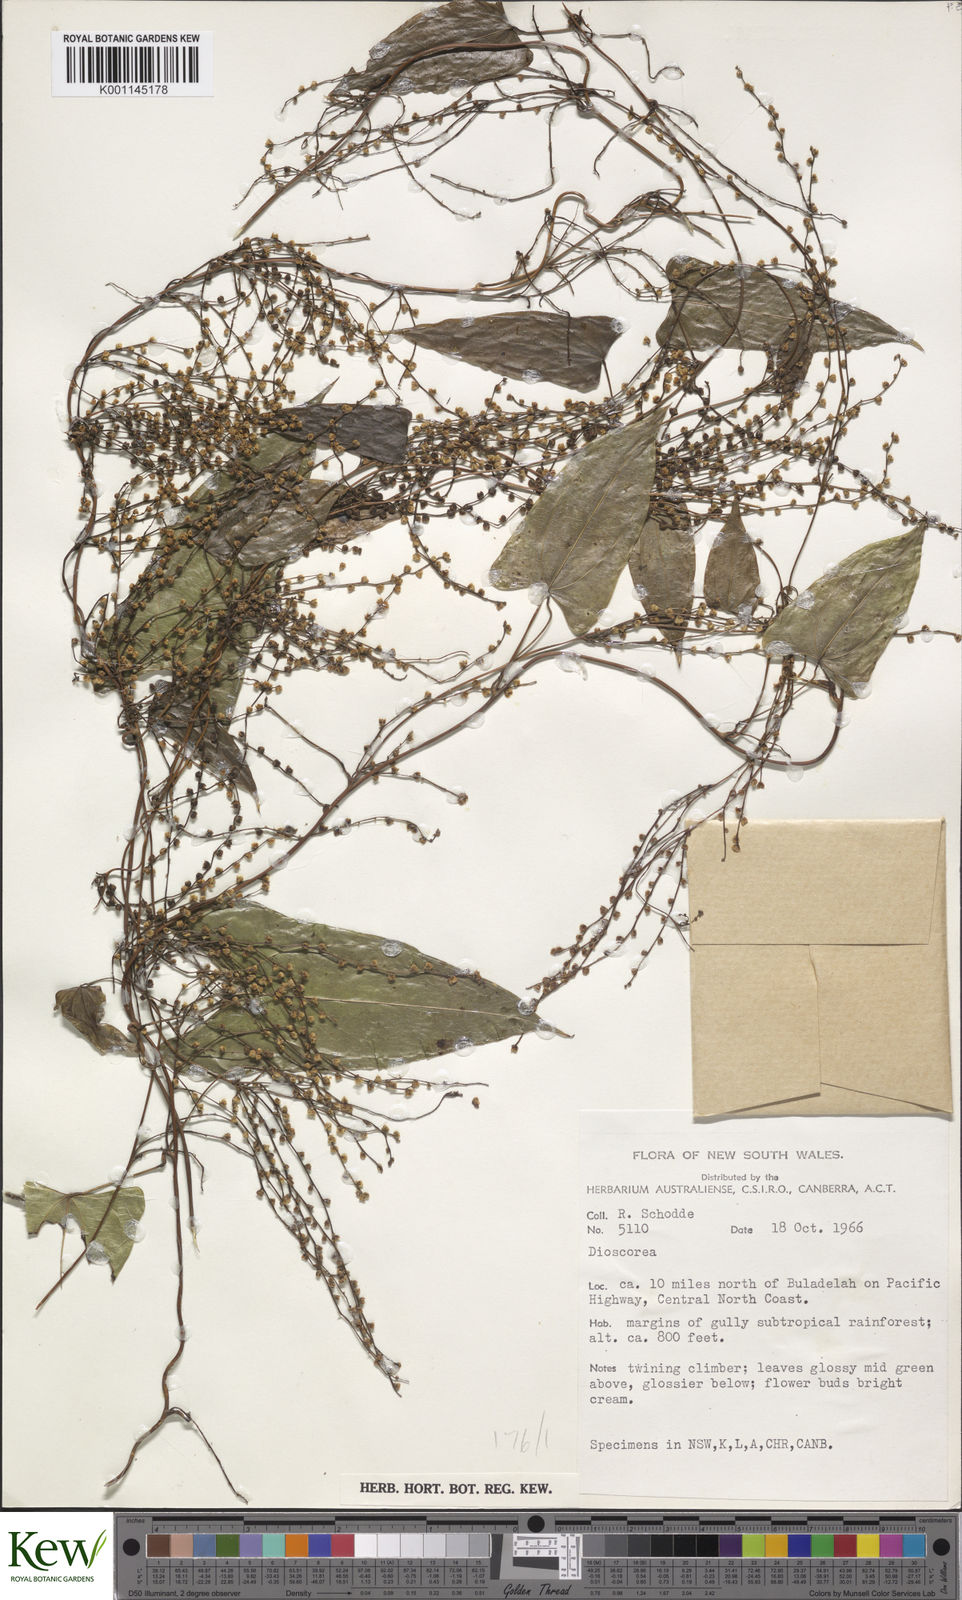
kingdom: Plantae
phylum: Tracheophyta
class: Liliopsida
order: Dioscoreales
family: Dioscoreaceae
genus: Dioscorea
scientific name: Dioscorea
